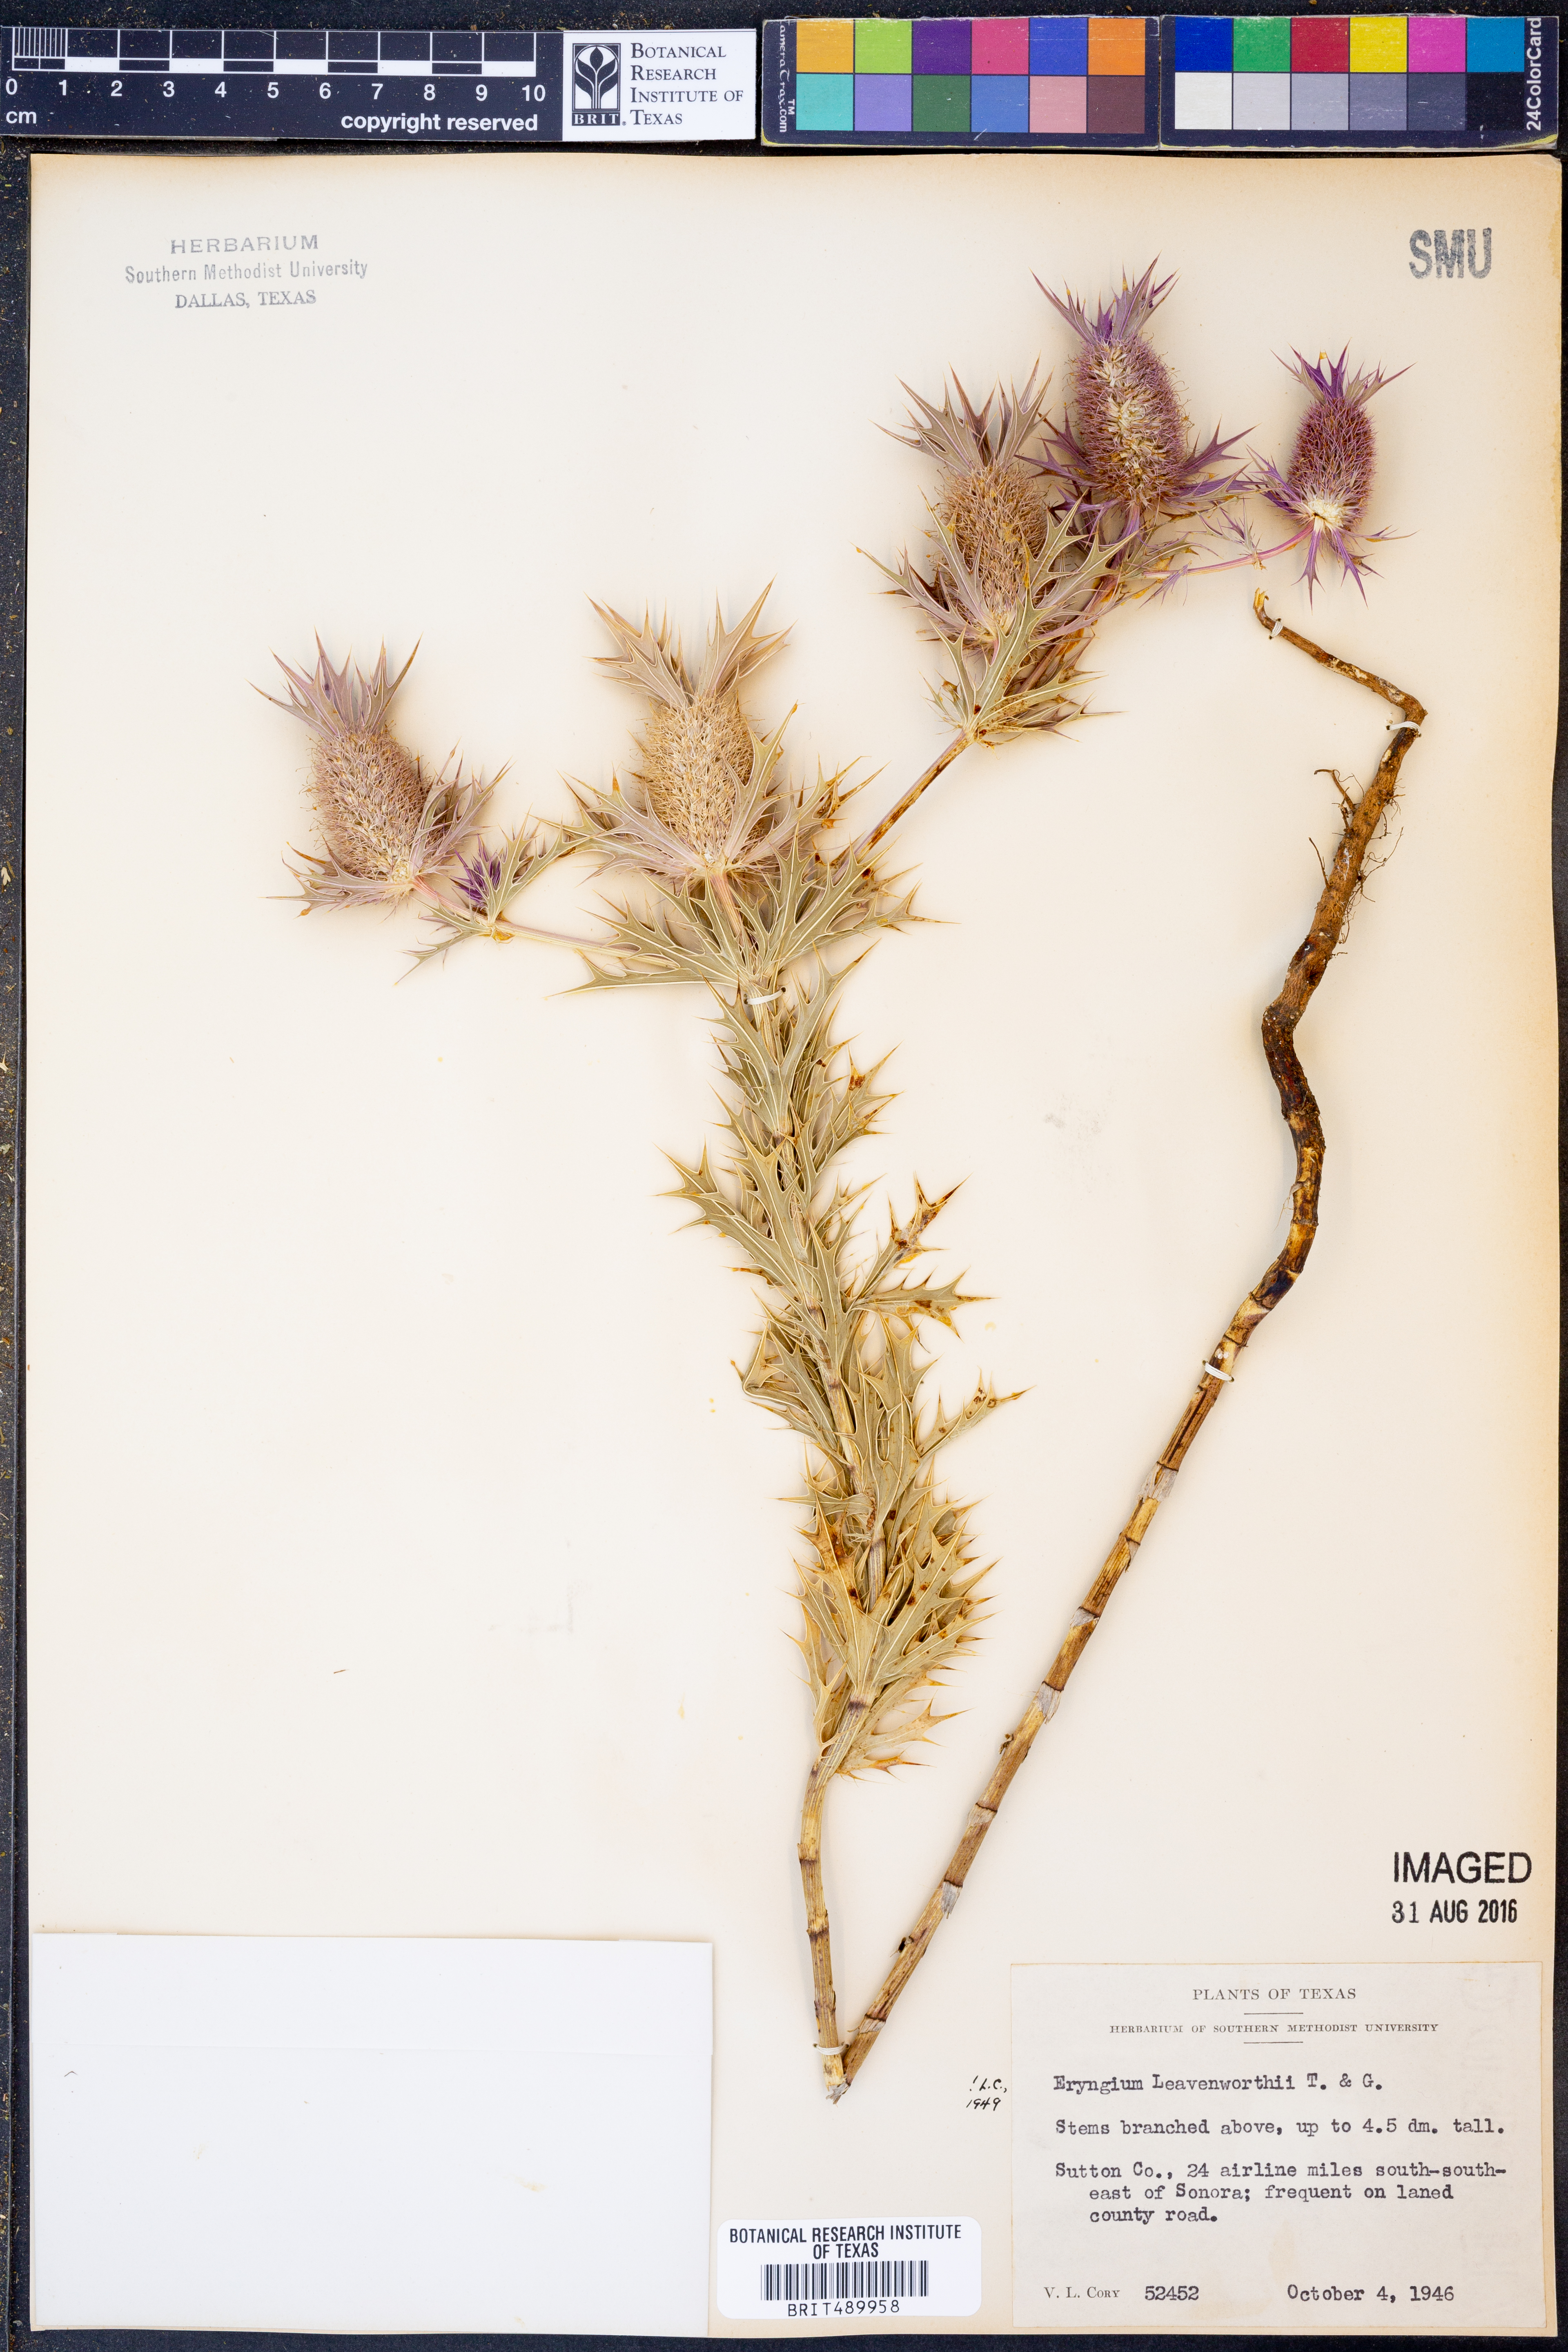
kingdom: Plantae
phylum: Tracheophyta
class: Magnoliopsida
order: Apiales
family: Apiaceae
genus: Eryngium
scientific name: Eryngium leavenworthii
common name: Leavenworth's eryngo
